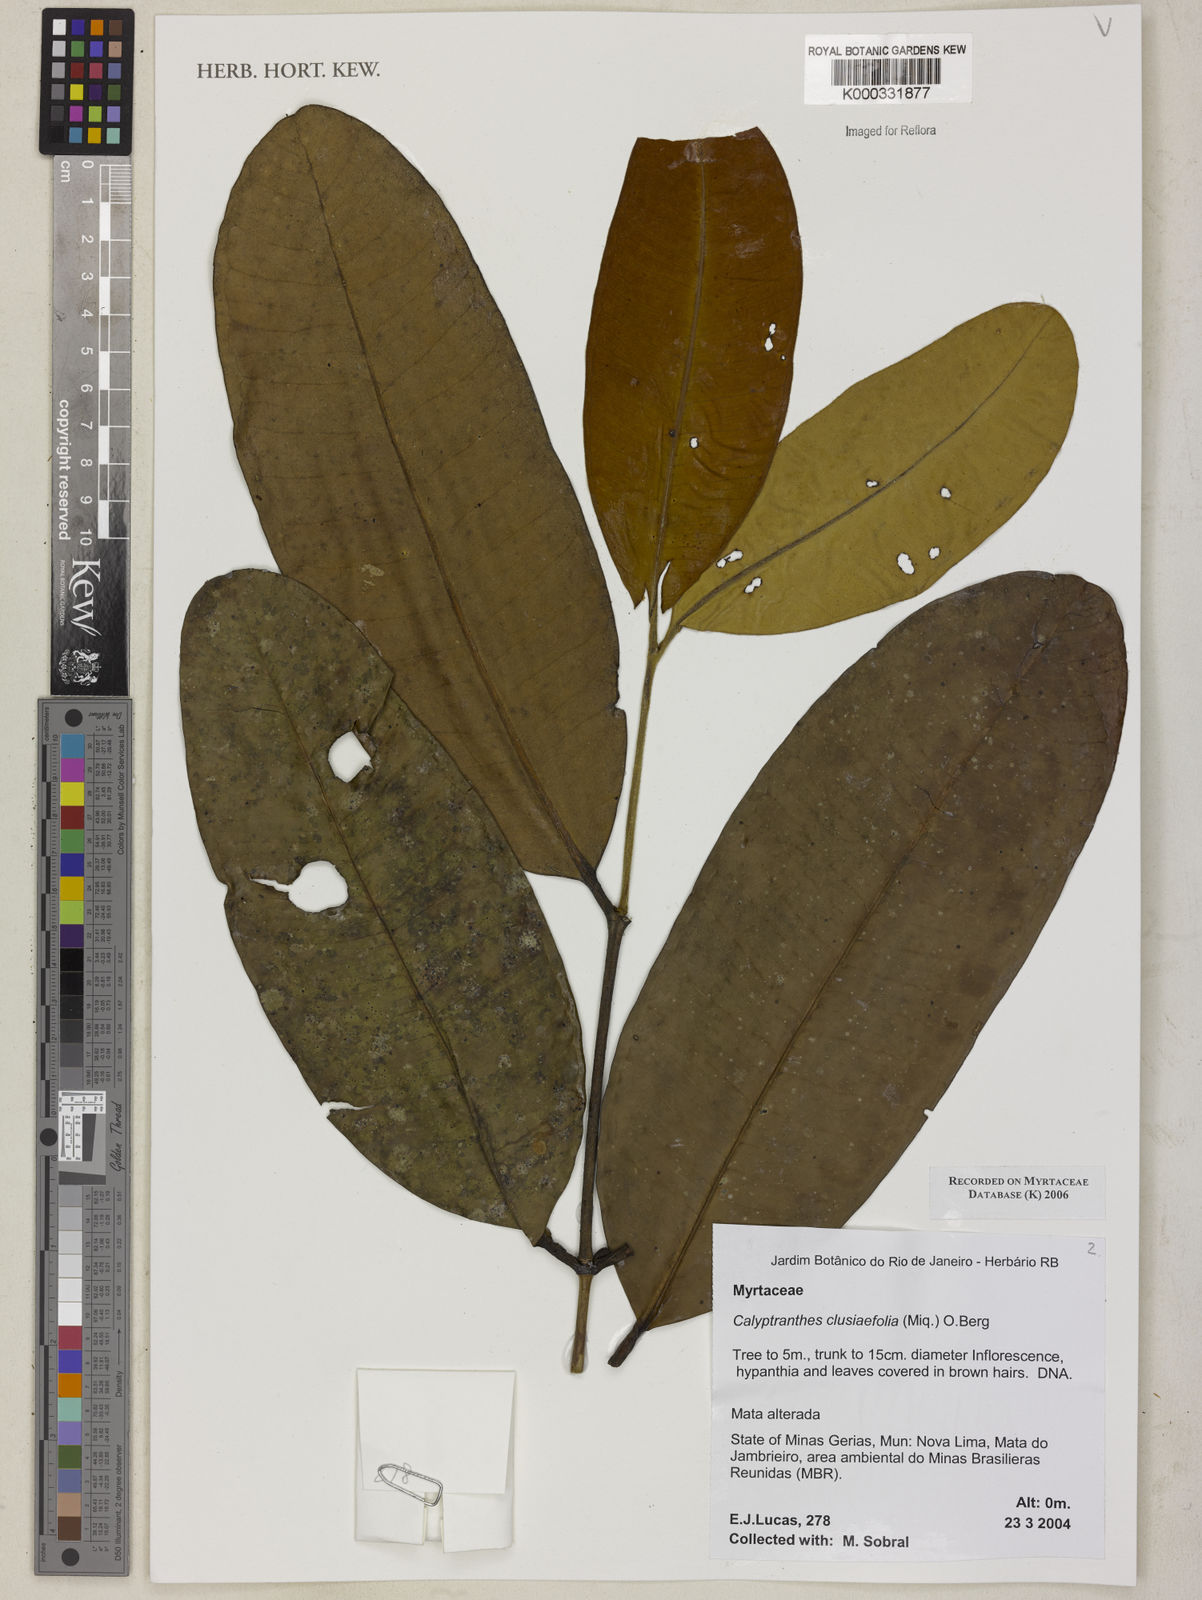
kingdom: Plantae
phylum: Tracheophyta
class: Magnoliopsida
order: Myrtales
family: Myrtaceae
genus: Calyptranthes
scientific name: Calyptranthes
